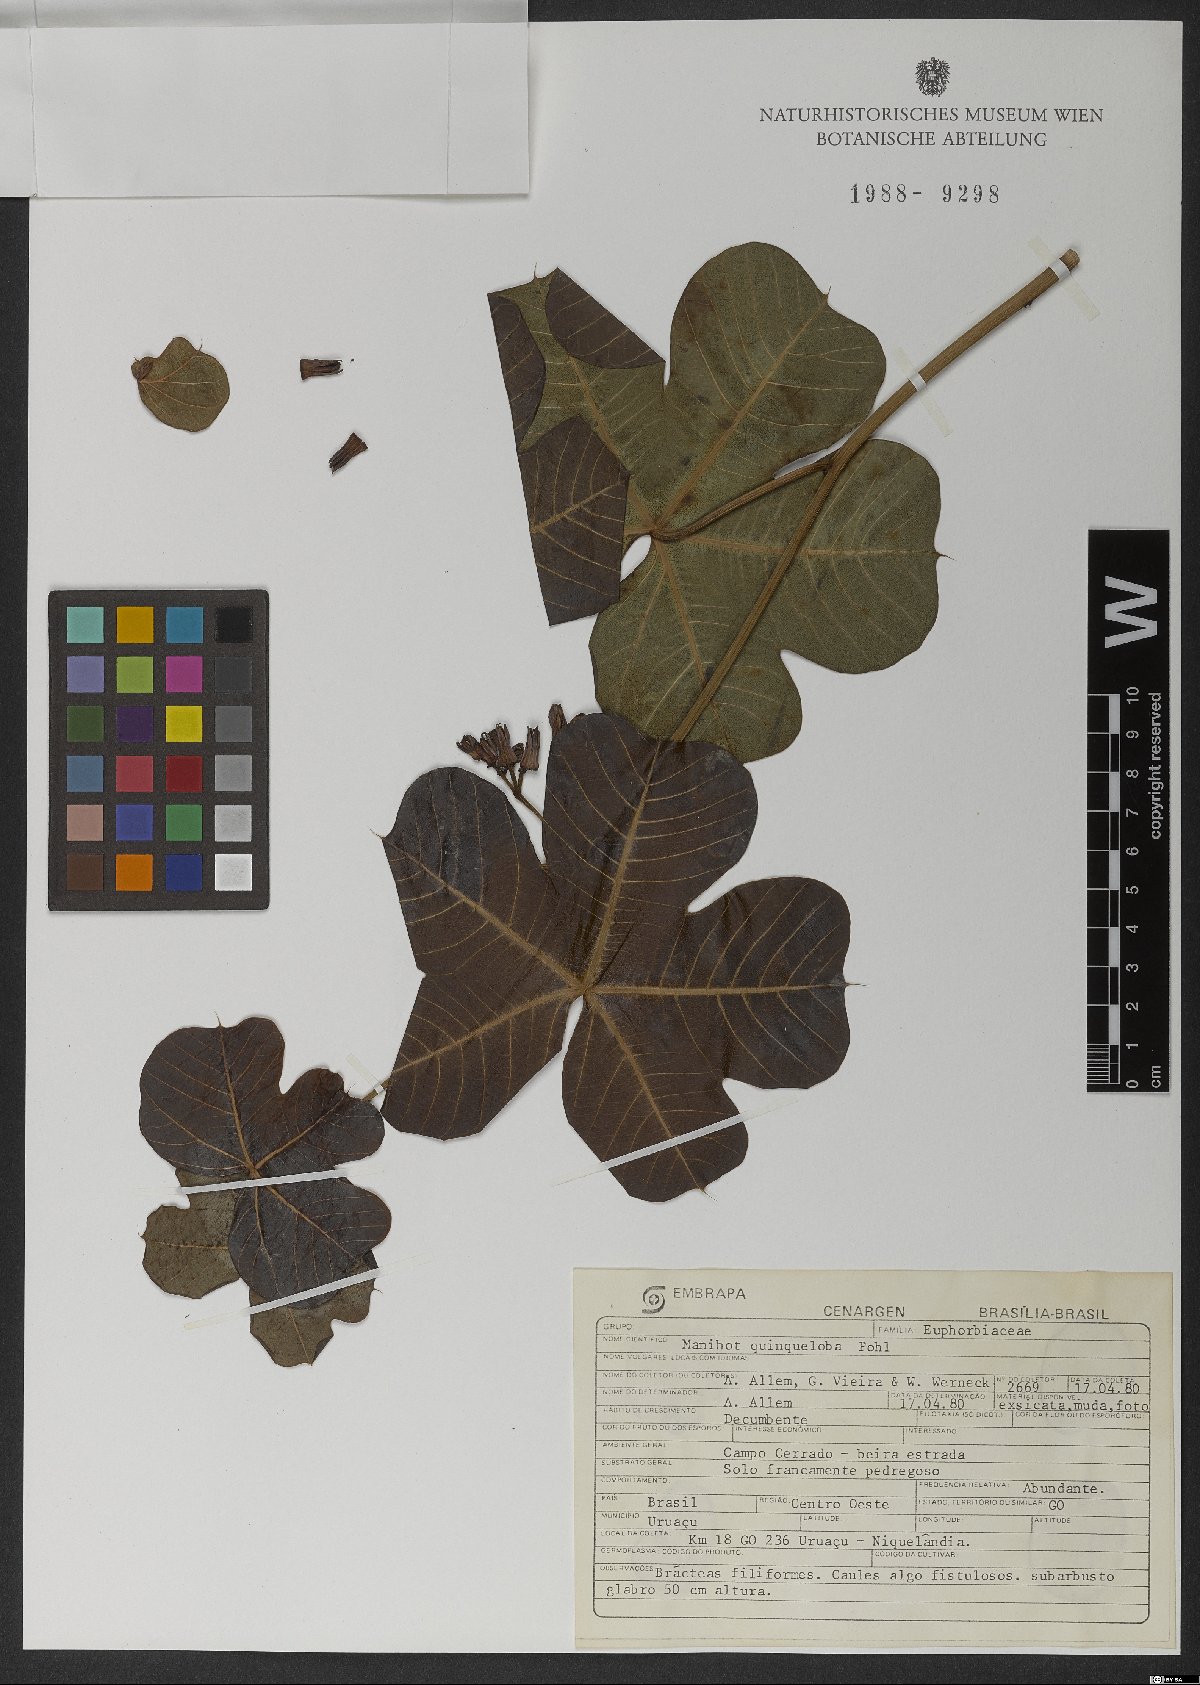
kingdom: Plantae
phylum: Tracheophyta
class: Magnoliopsida
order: Malpighiales
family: Euphorbiaceae
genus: Manihot
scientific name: Manihot quinqueloba
